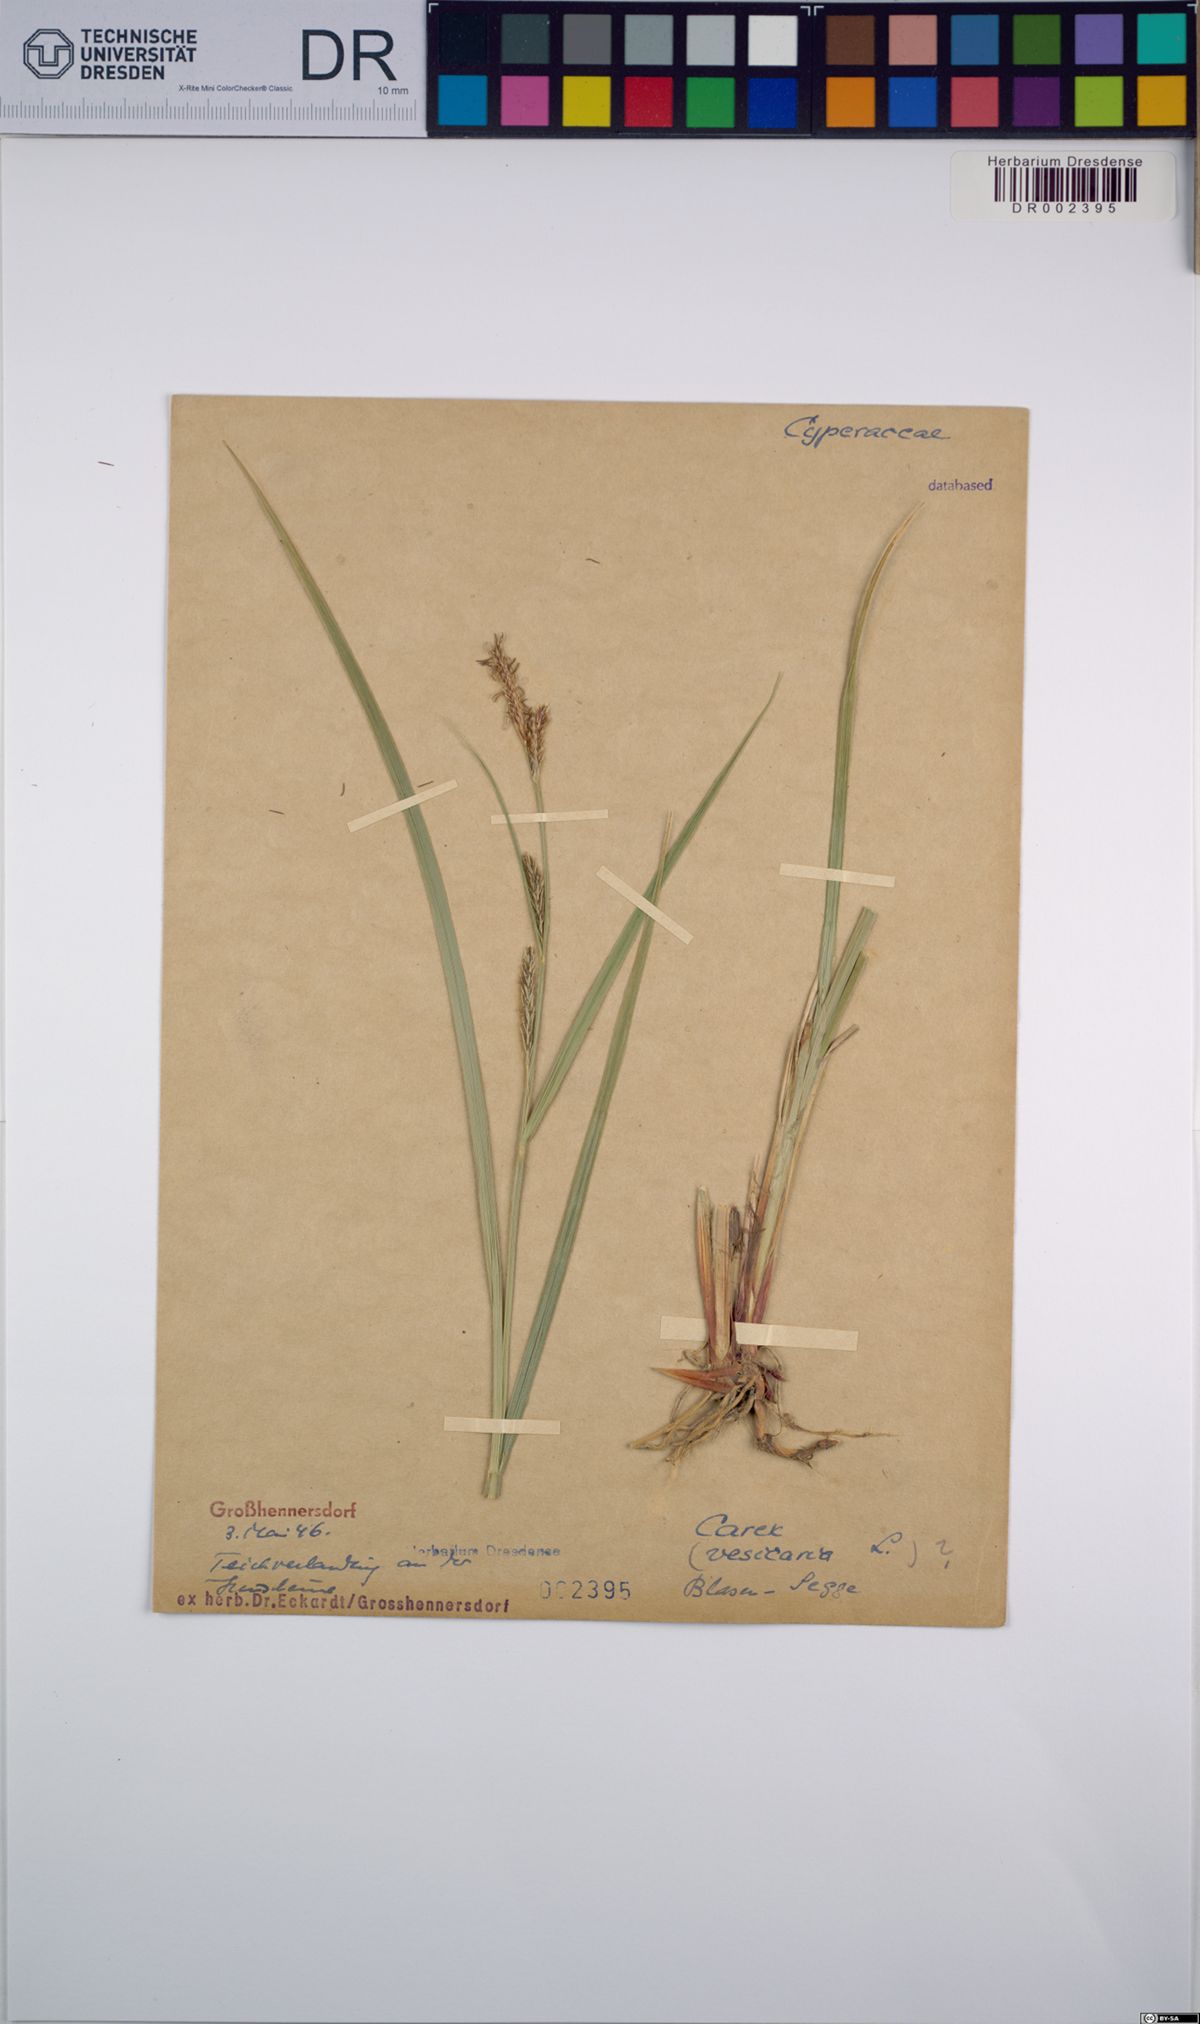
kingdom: Plantae
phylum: Tracheophyta
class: Liliopsida
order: Poales
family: Cyperaceae
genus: Carex
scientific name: Carex vesicaria
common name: Bladder-sedge
